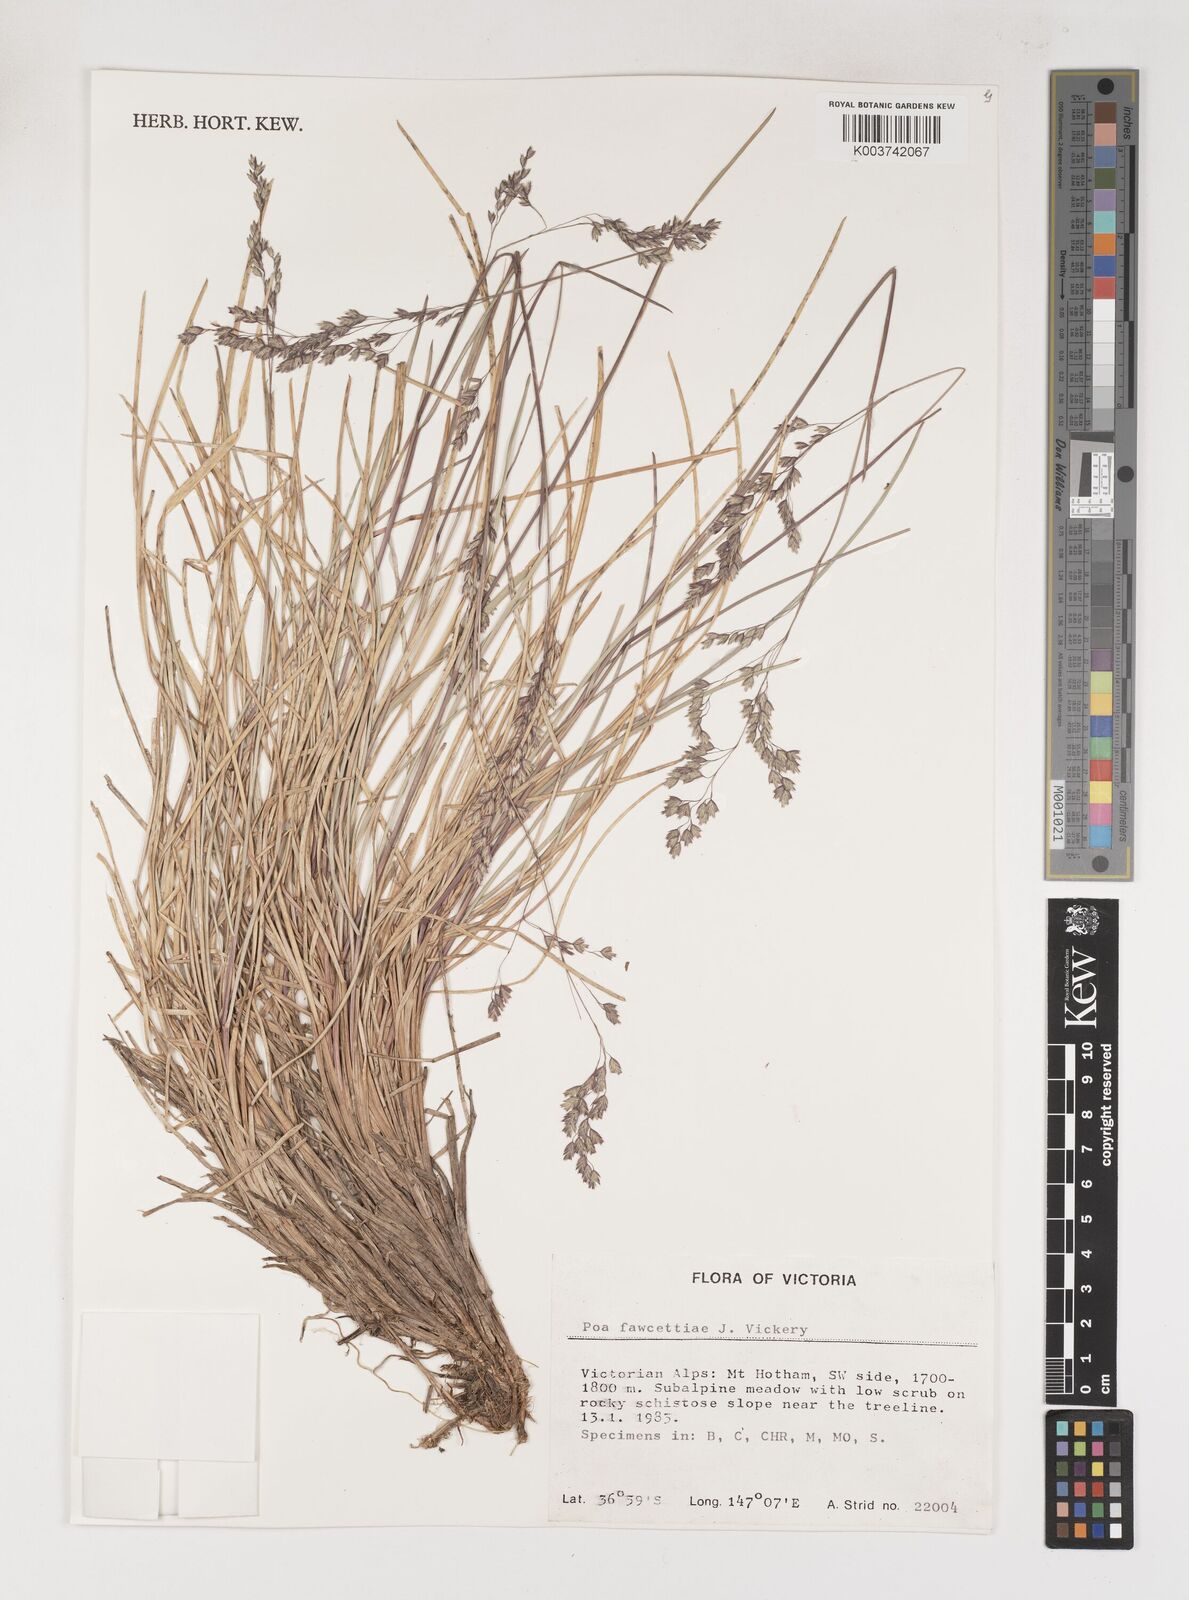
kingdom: Plantae
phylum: Tracheophyta
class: Liliopsida
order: Poales
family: Poaceae
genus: Poa
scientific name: Poa fawcettiae
